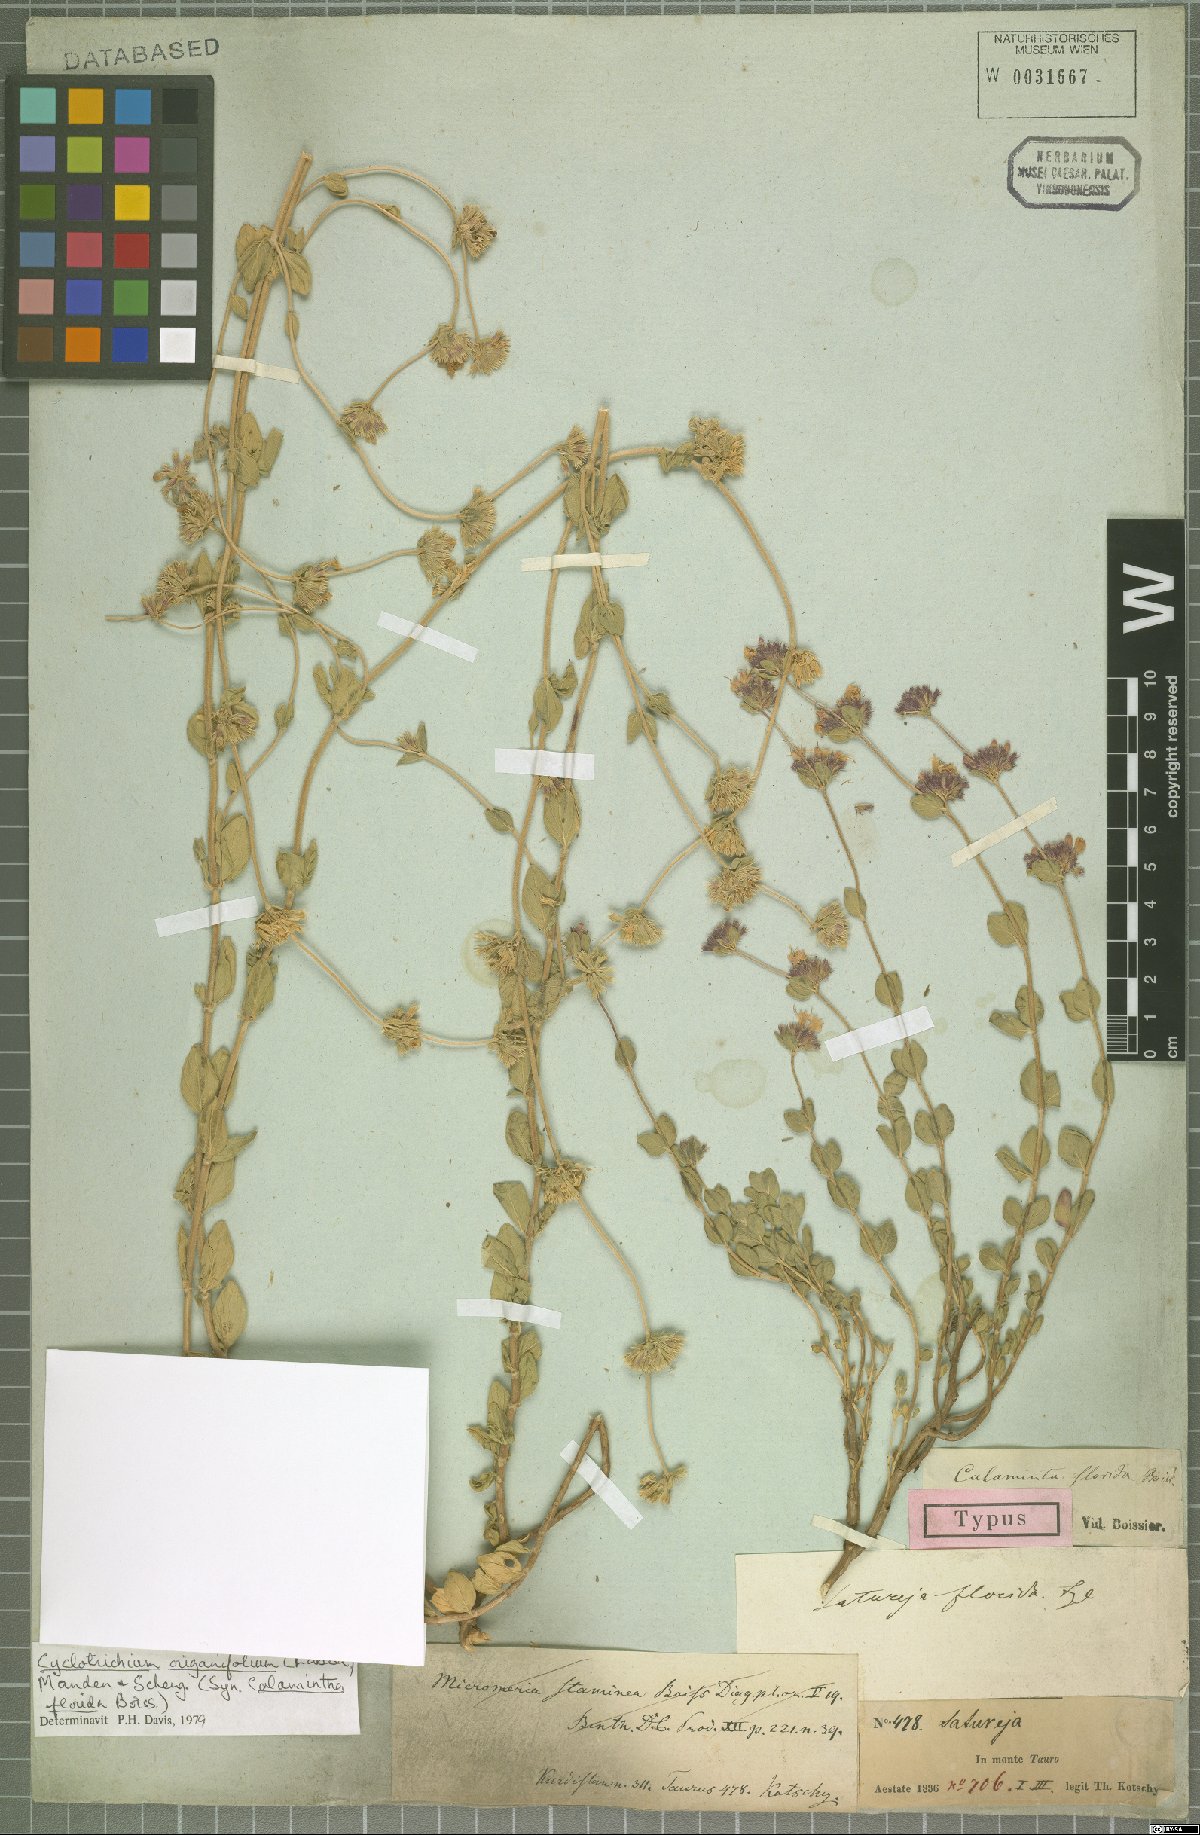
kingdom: Plantae
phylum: Tracheophyta
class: Magnoliopsida
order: Lamiales
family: Lamiaceae
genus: Cyclotrichium
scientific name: Cyclotrichium origanifolium
